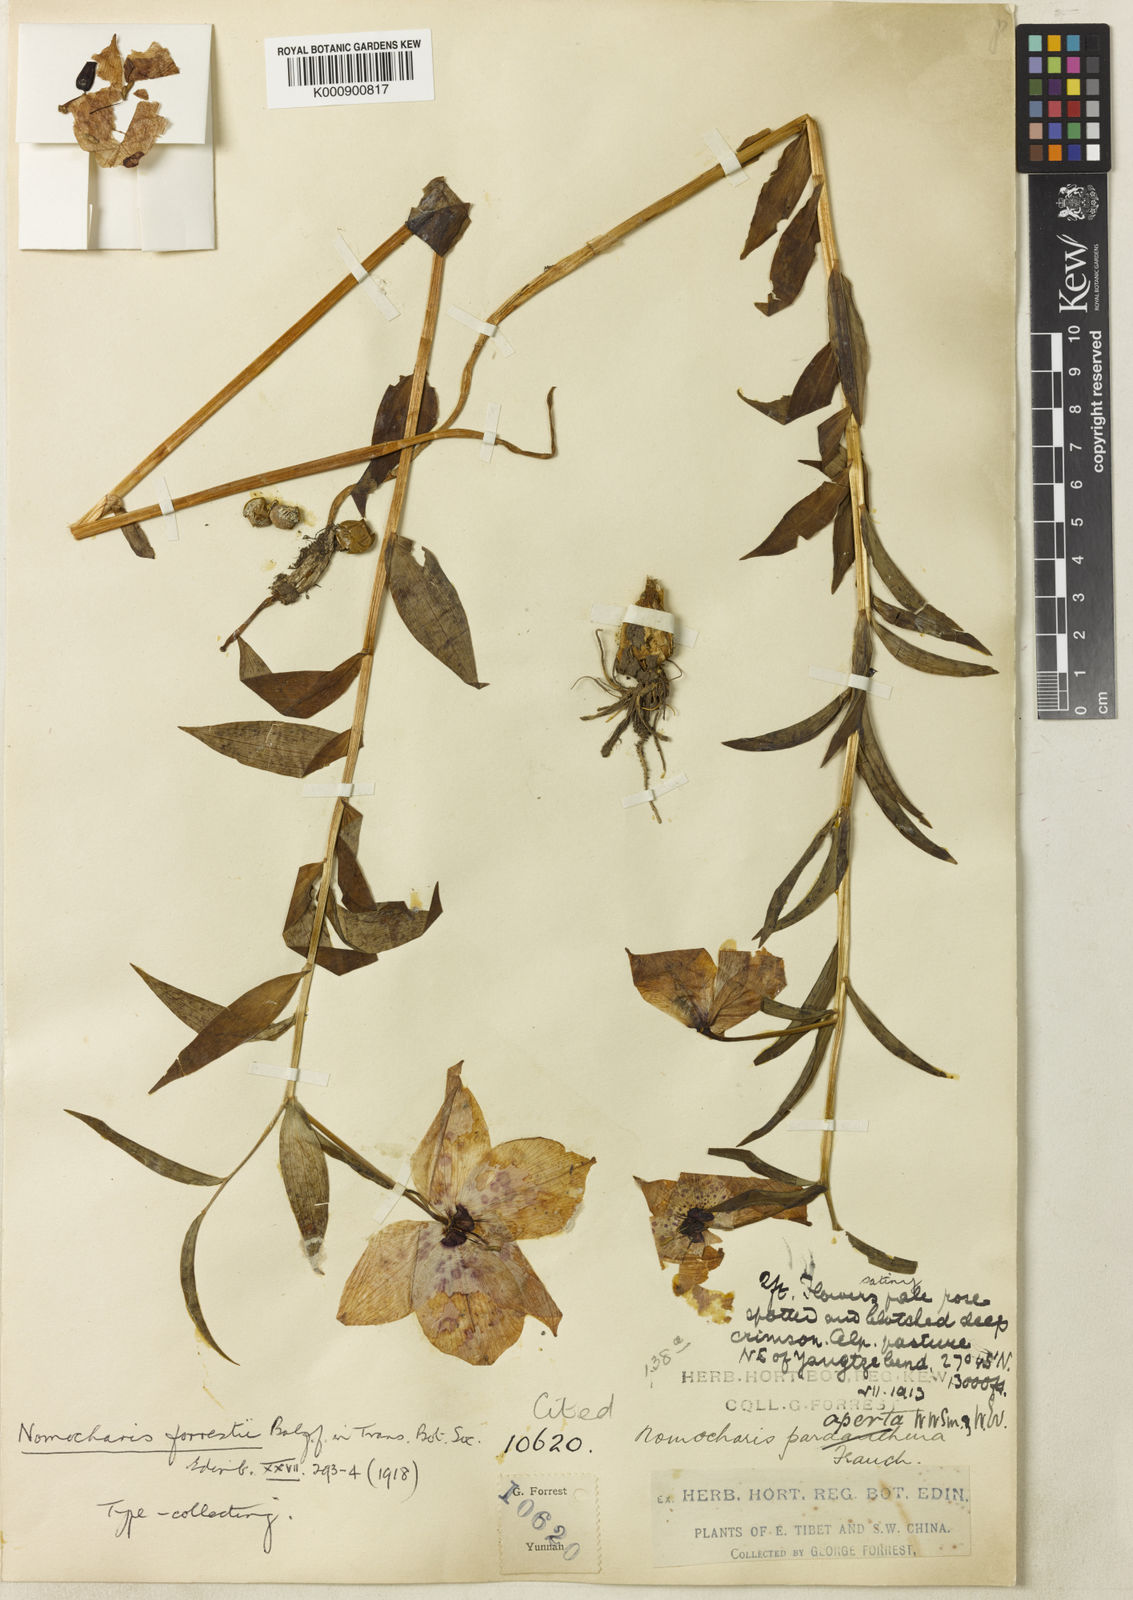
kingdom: Plantae
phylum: Tracheophyta
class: Liliopsida
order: Liliales
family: Liliaceae
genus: Lilium
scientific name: Lilium apertum
